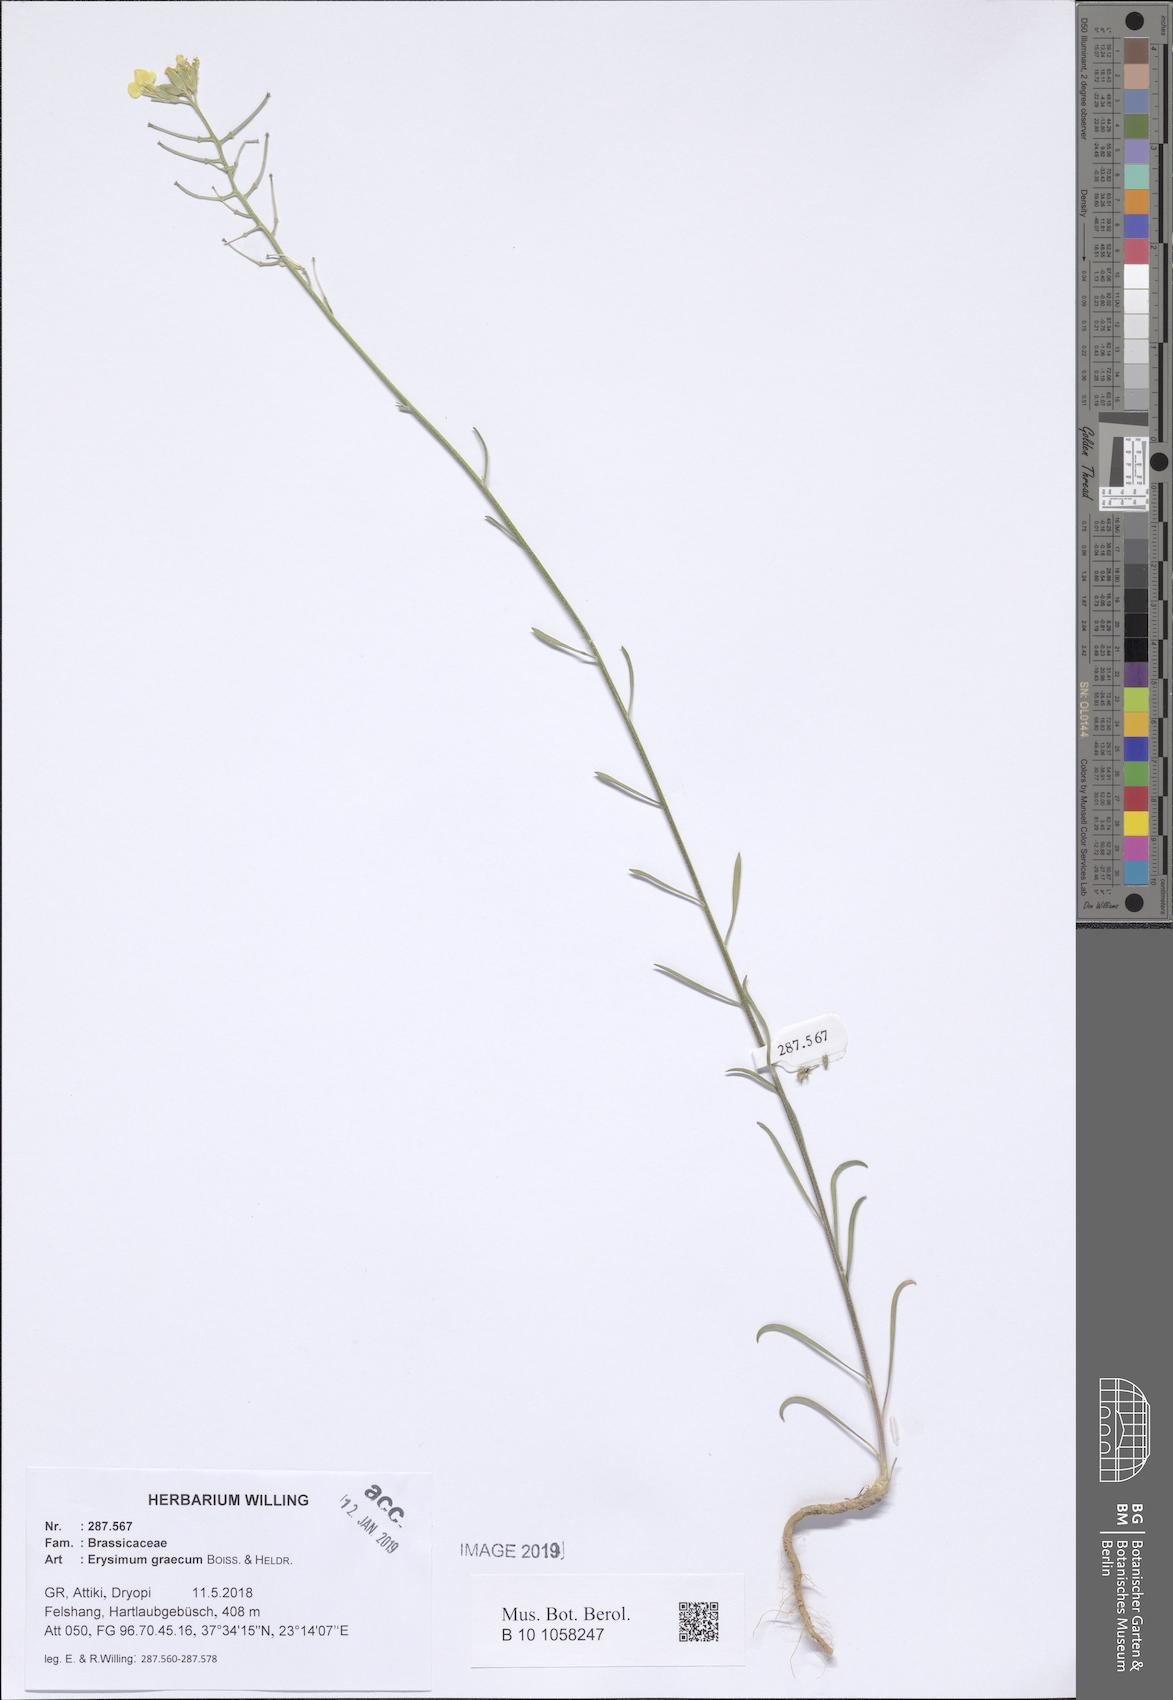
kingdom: Plantae
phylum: Tracheophyta
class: Magnoliopsida
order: Brassicales
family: Brassicaceae
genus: Erysimum
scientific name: Erysimum graecum
